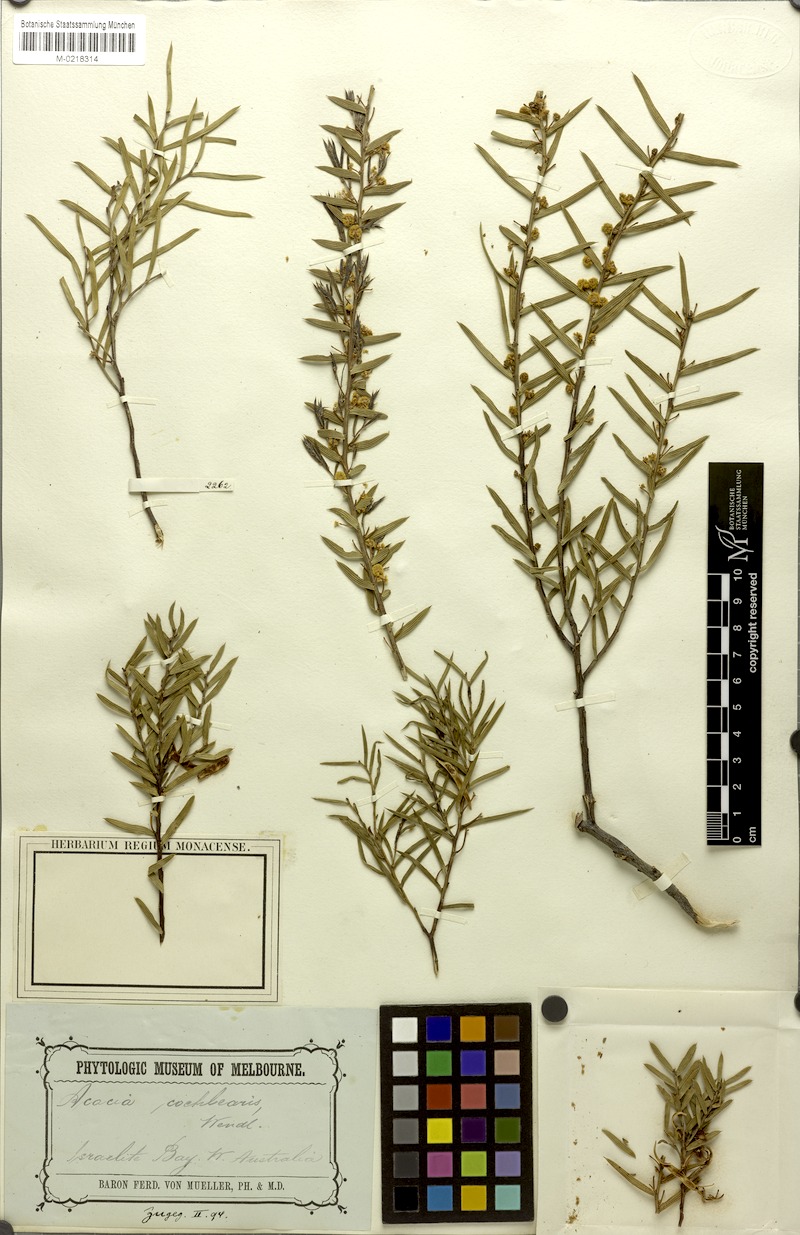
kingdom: Plantae
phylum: Tracheophyta
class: Magnoliopsida
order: Fabales
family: Fabaceae
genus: Acacia
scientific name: Acacia cochlearis
